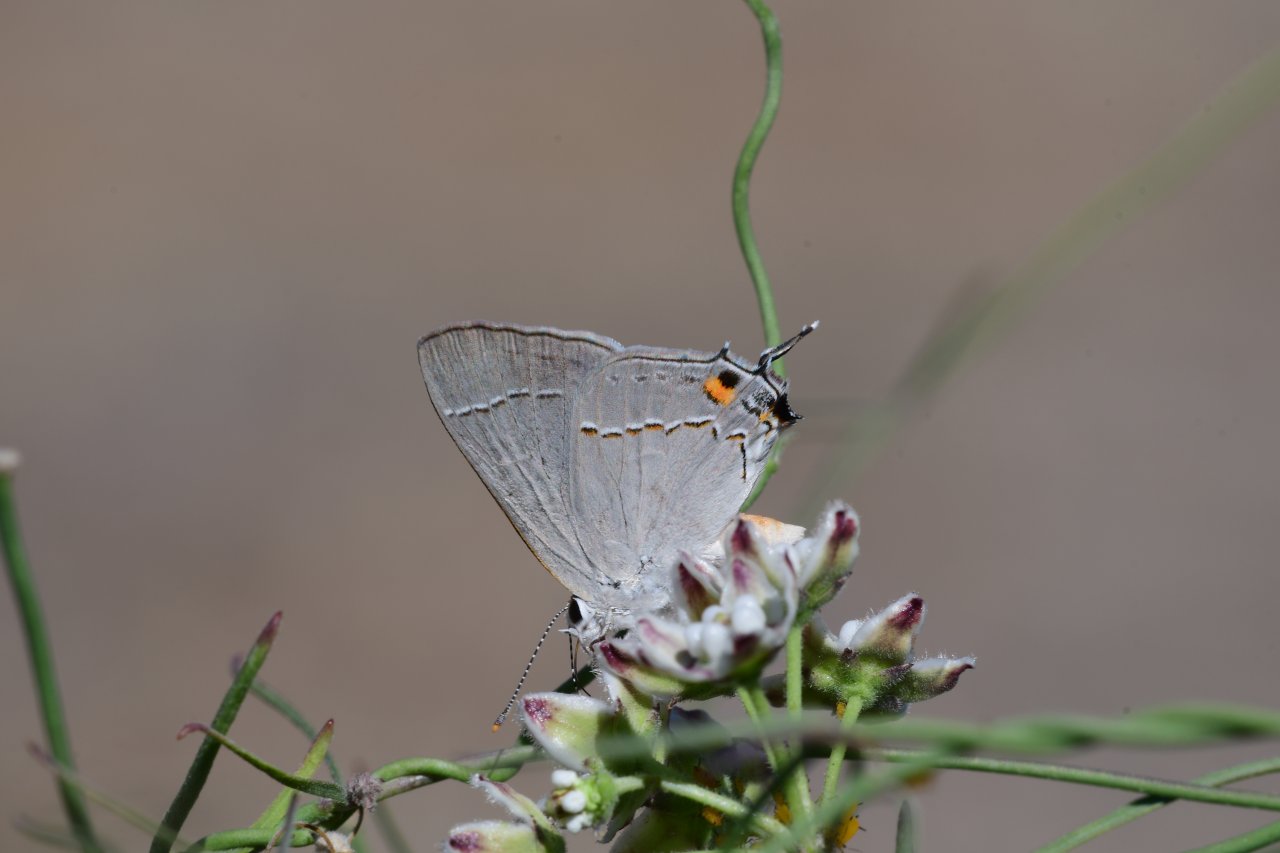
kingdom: Animalia
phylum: Arthropoda
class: Insecta
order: Lepidoptera
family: Lycaenidae
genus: Strymon
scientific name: Strymon melinus
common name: Gray Hairstreak
